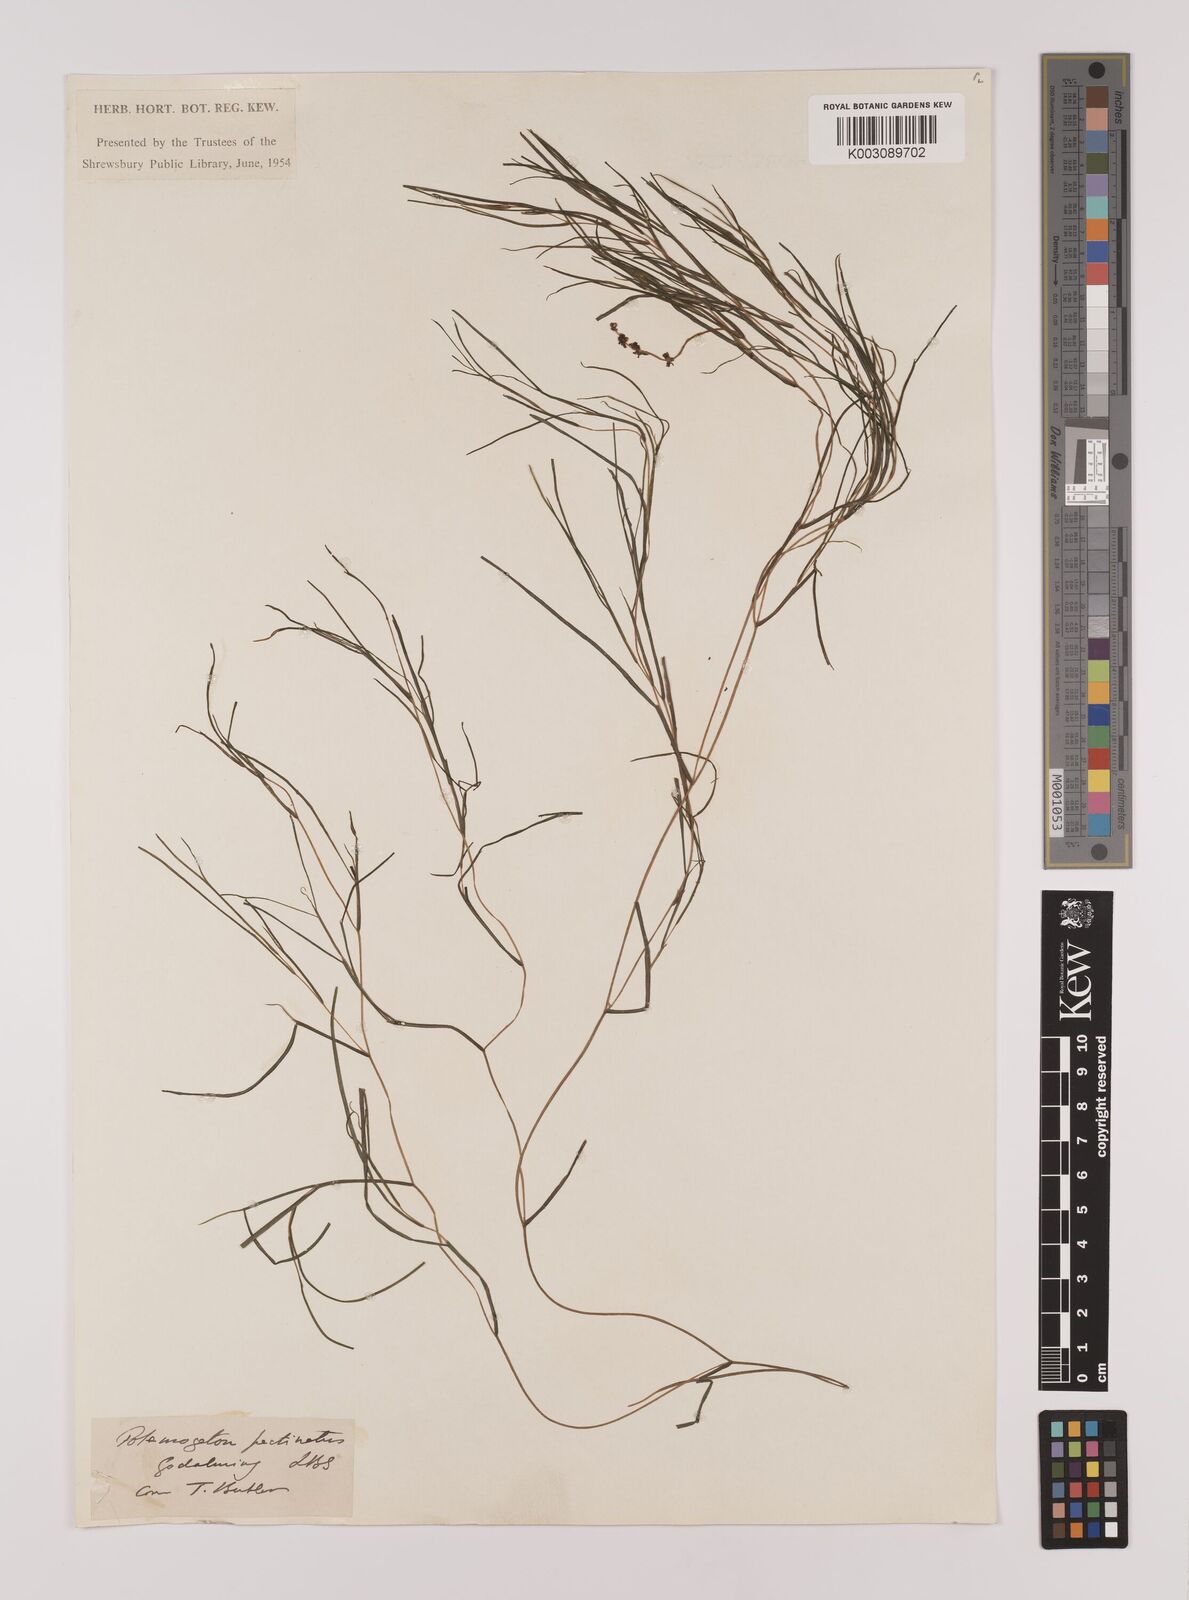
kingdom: Plantae
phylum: Tracheophyta
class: Liliopsida
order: Alismatales
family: Potamogetonaceae
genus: Stuckenia
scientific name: Stuckenia pectinata
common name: Sago pondweed
